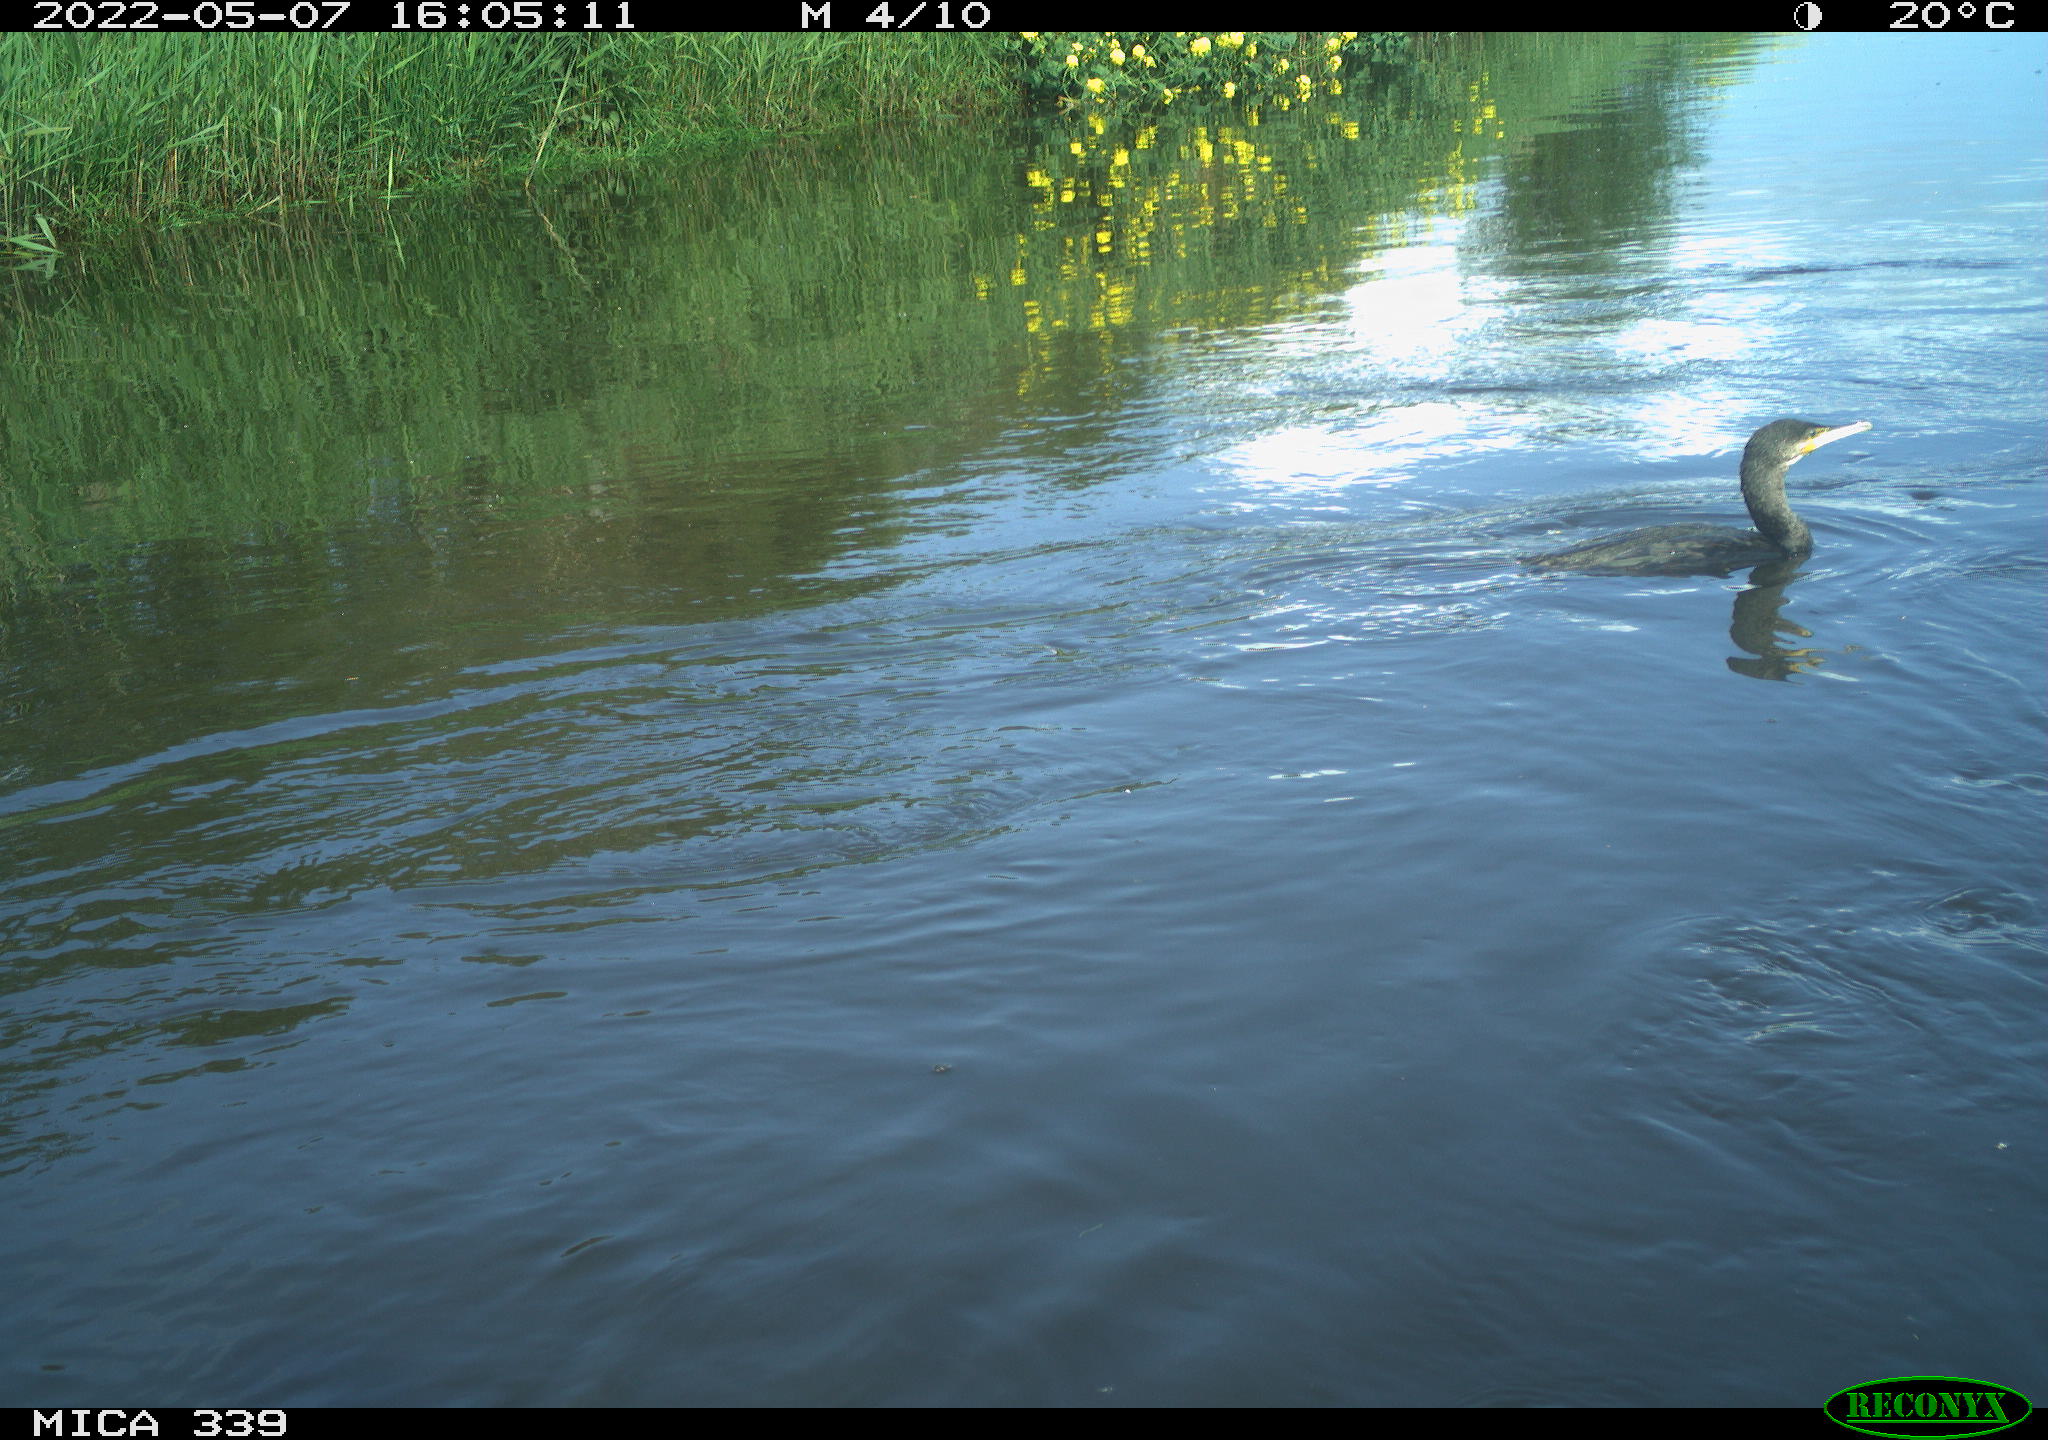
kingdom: Animalia
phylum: Chordata
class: Aves
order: Suliformes
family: Phalacrocoracidae
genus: Phalacrocorax
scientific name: Phalacrocorax carbo
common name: Great cormorant
